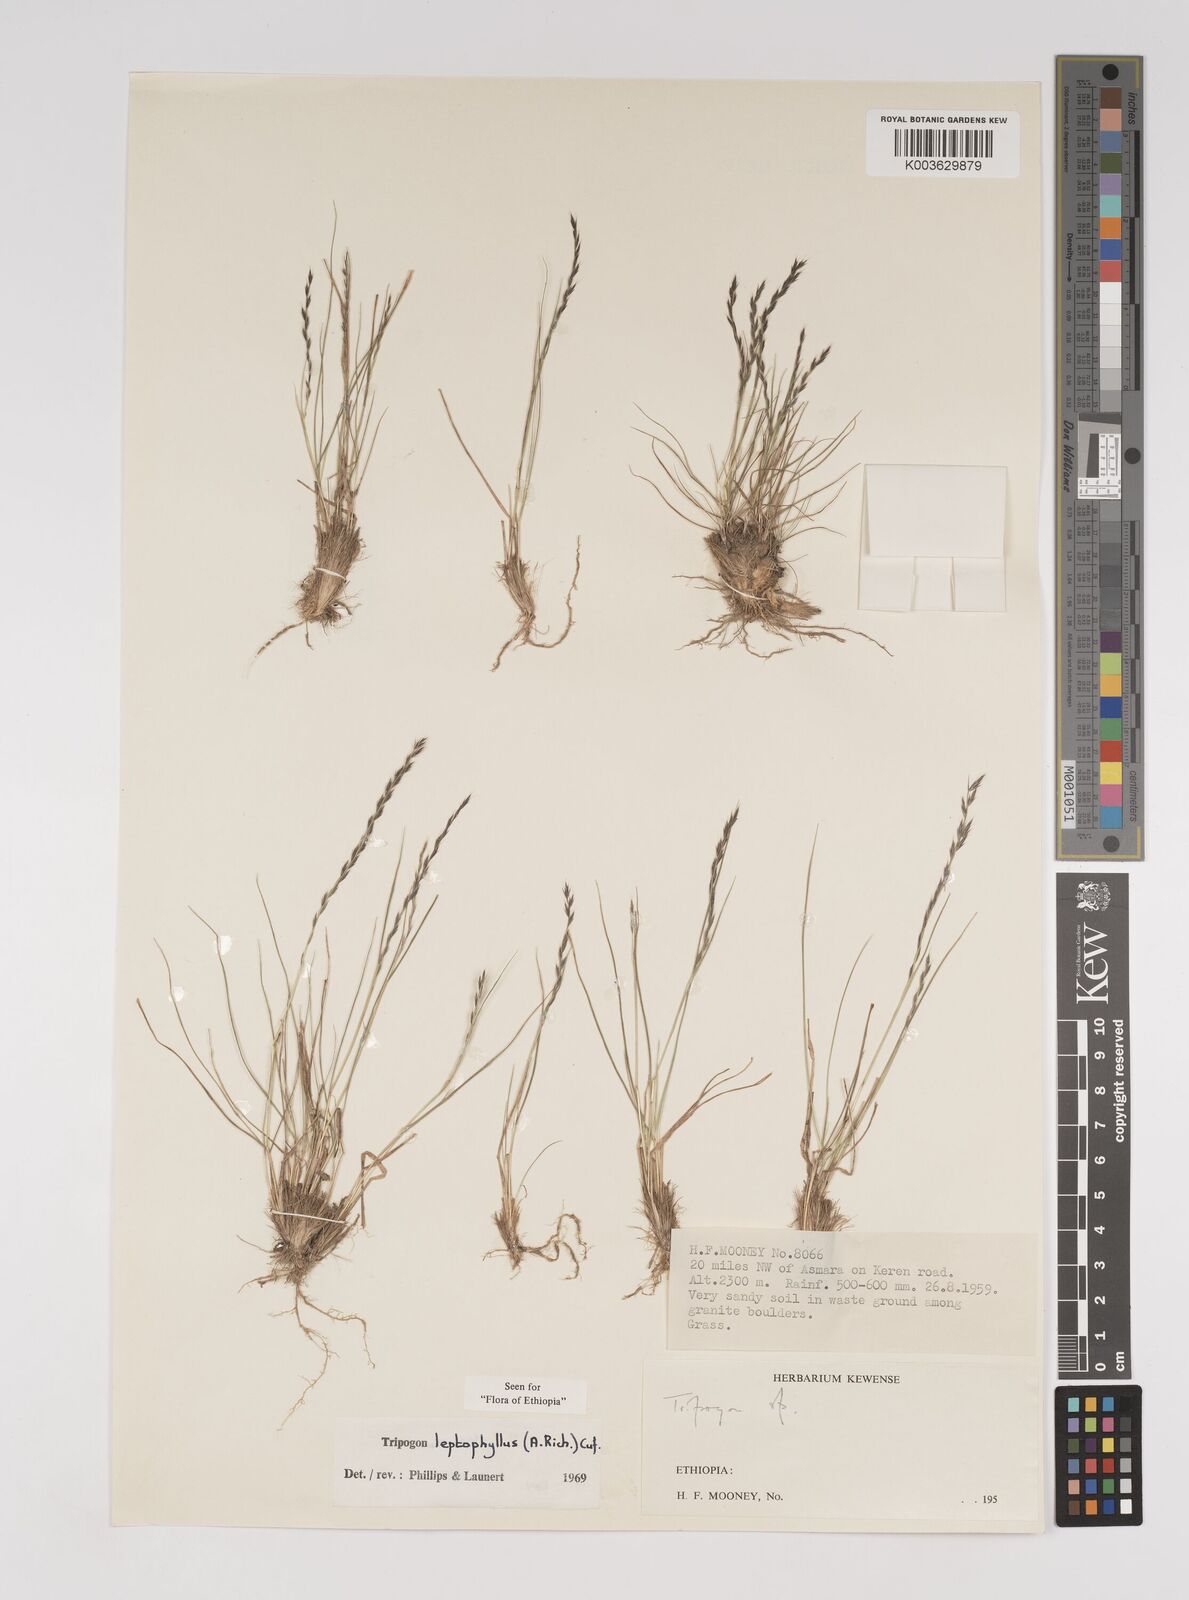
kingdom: Plantae
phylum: Tracheophyta
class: Liliopsida
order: Poales
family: Poaceae
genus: Tripogon
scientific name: Tripogon leptophyllus
